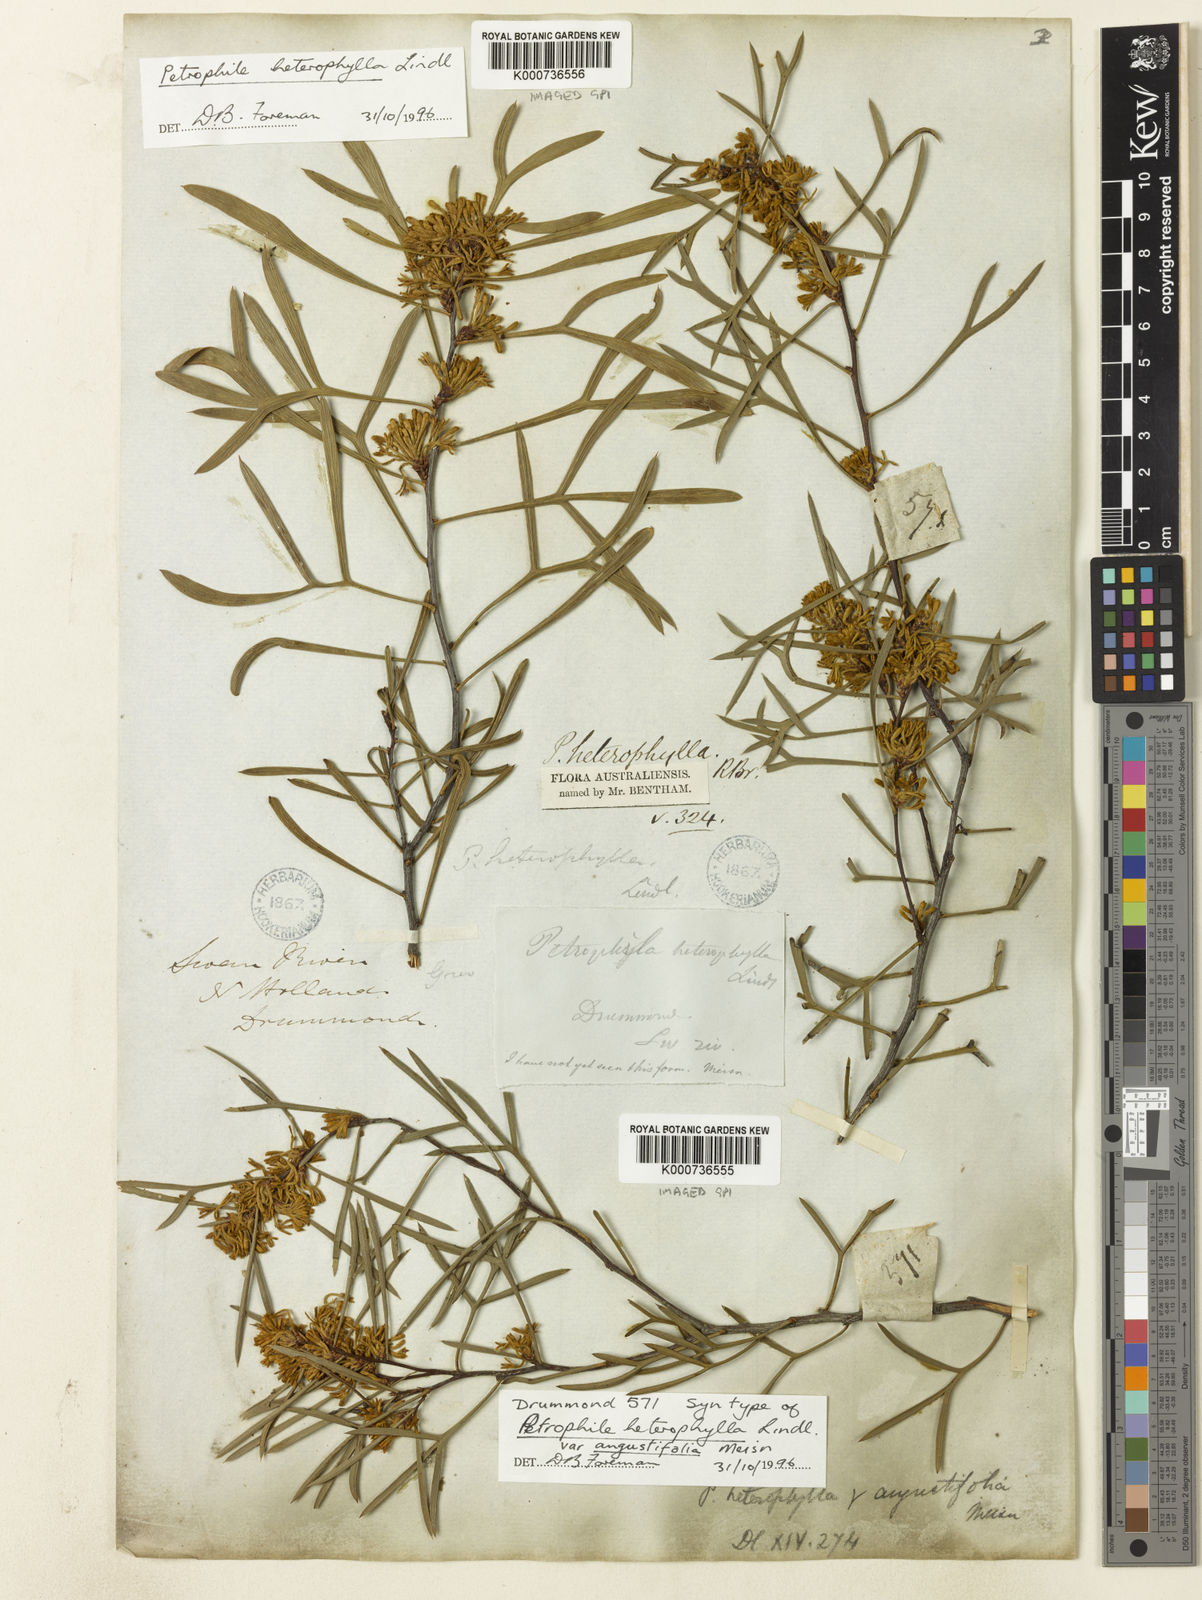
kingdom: Plantae
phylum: Tracheophyta
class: Magnoliopsida
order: Proteales
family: Proteaceae
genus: Petrophile
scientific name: Petrophile heterophylla
